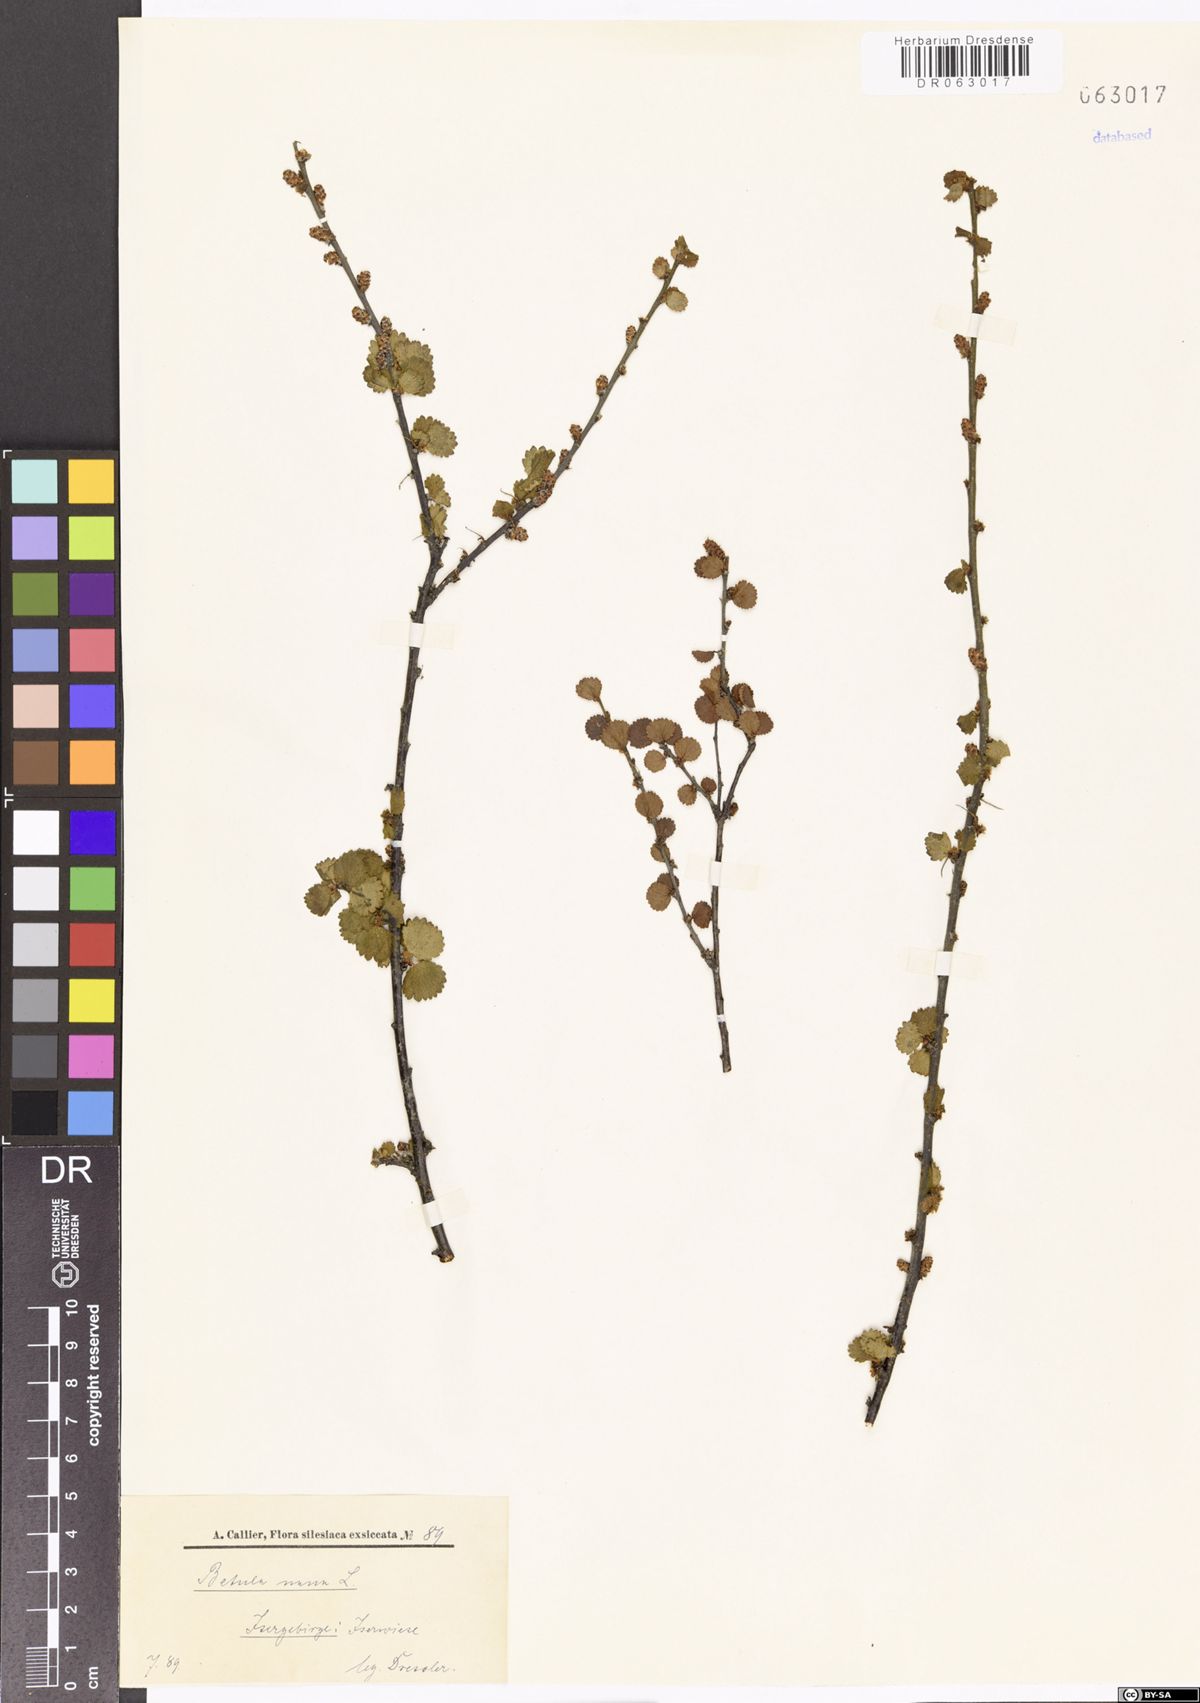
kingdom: Plantae
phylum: Tracheophyta
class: Magnoliopsida
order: Fagales
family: Betulaceae
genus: Betula
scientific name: Betula nana
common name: Arctic dwarf birch
